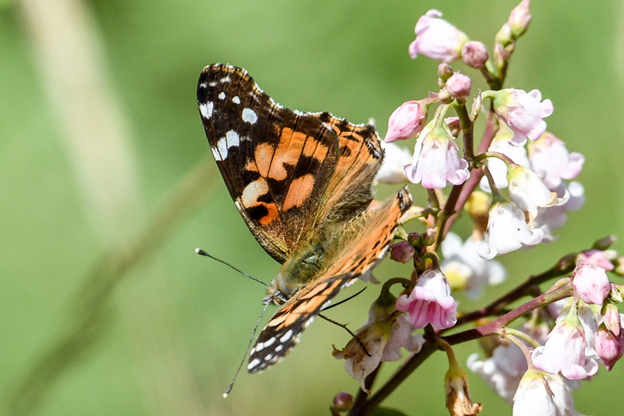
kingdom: Animalia
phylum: Arthropoda
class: Insecta
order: Lepidoptera
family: Nymphalidae
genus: Vanessa
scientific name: Vanessa cardui
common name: Painted Lady
